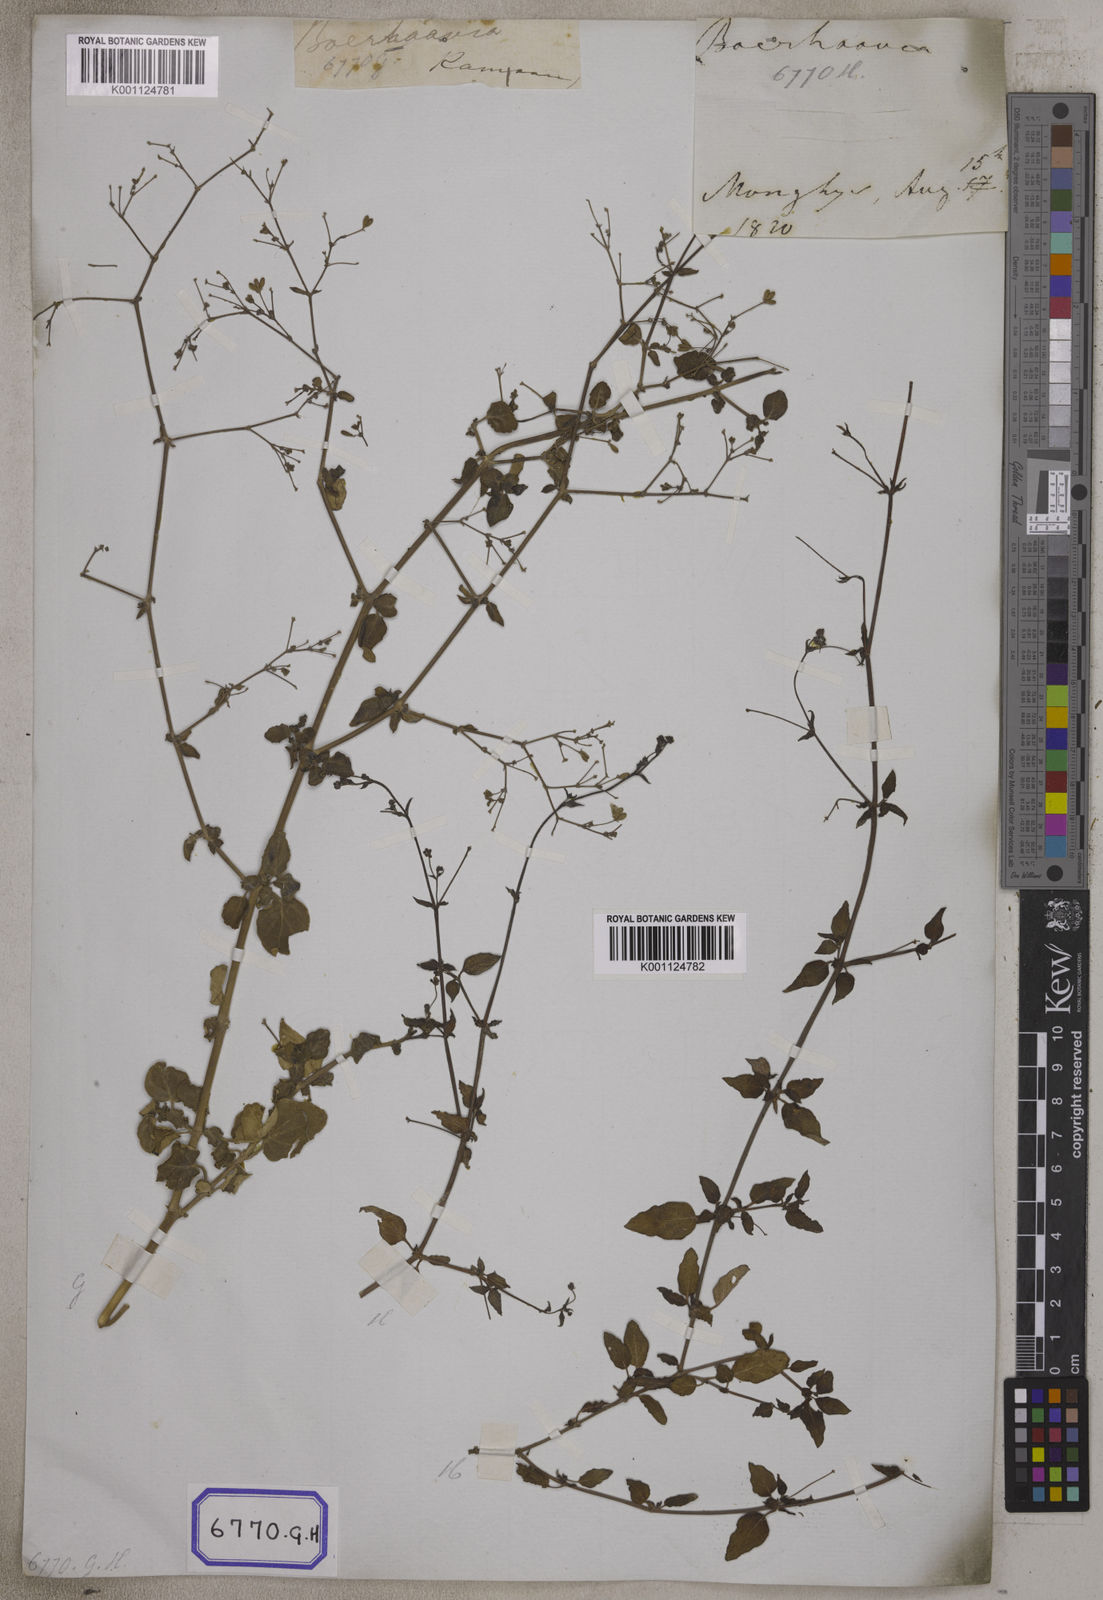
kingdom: Plantae
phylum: Tracheophyta
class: Magnoliopsida
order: Caryophyllales
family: Nyctaginaceae
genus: Boerhavia
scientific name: Boerhavia diffusa
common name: Red spiderling
